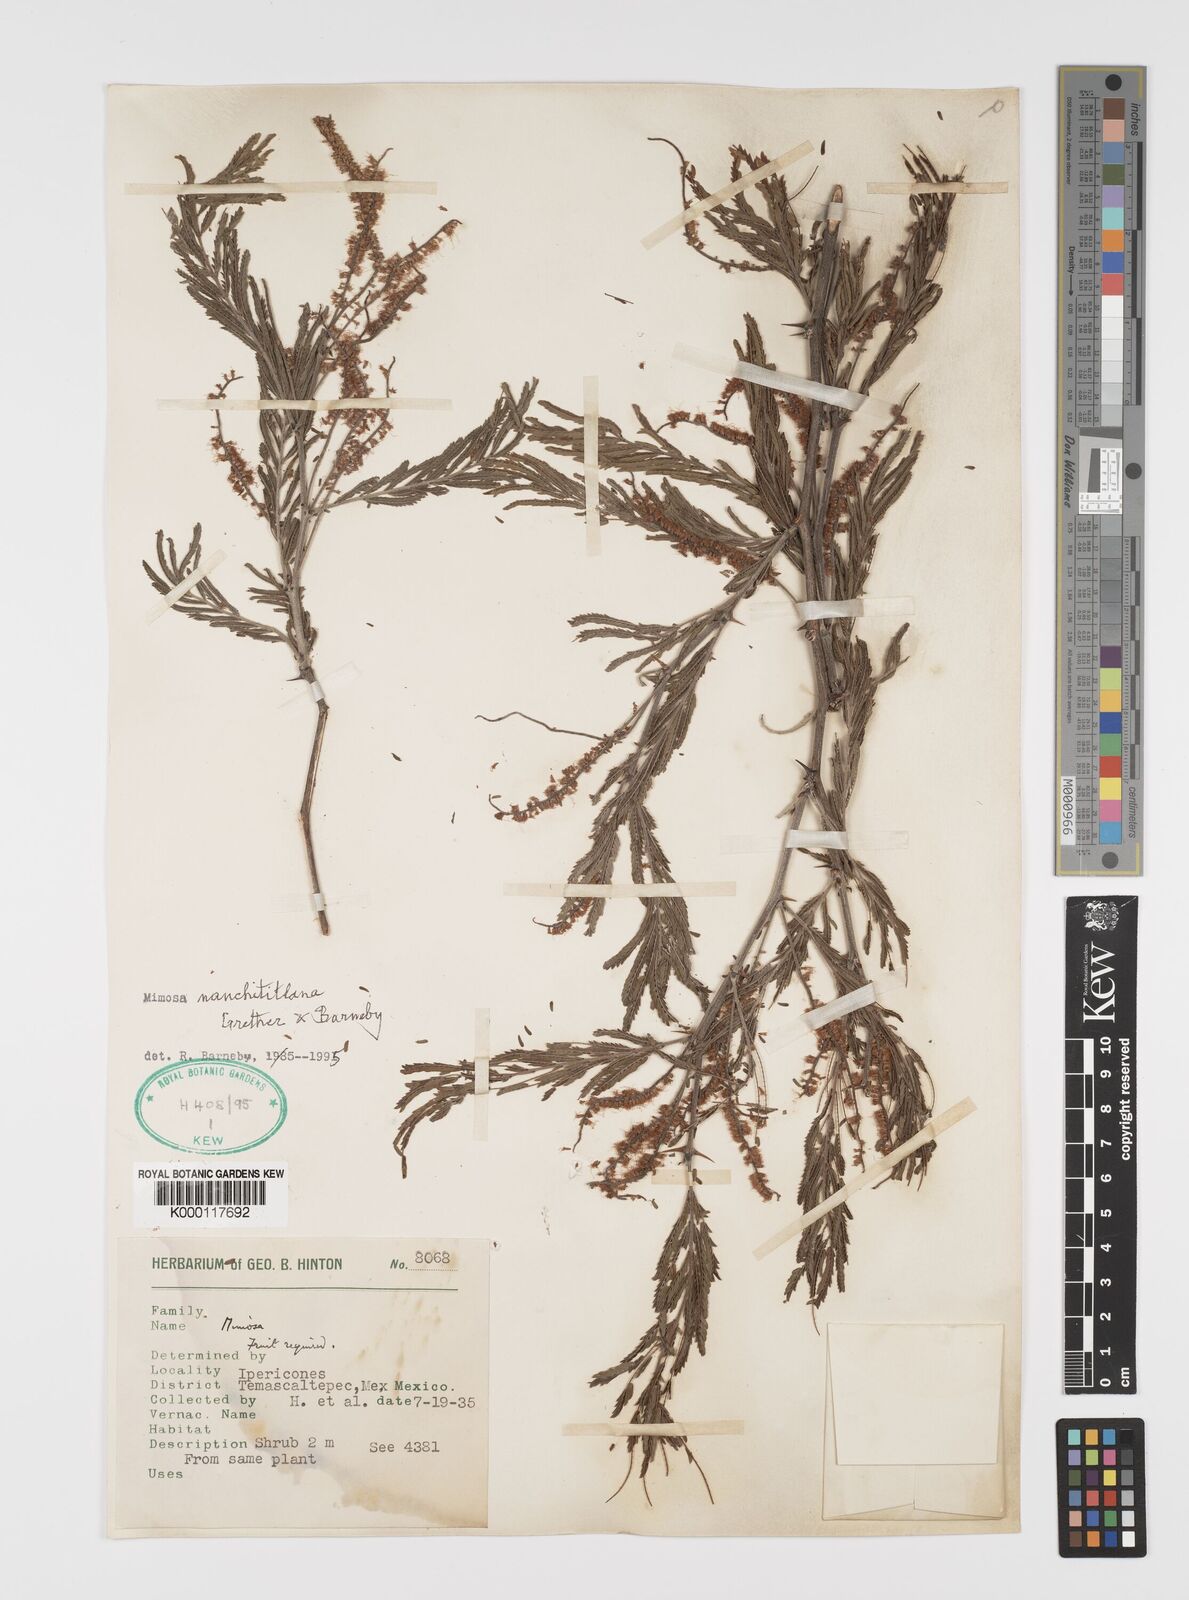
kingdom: Plantae
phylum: Tracheophyta
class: Magnoliopsida
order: Fabales
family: Fabaceae
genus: Mimosa
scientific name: Mimosa nanchititlana
